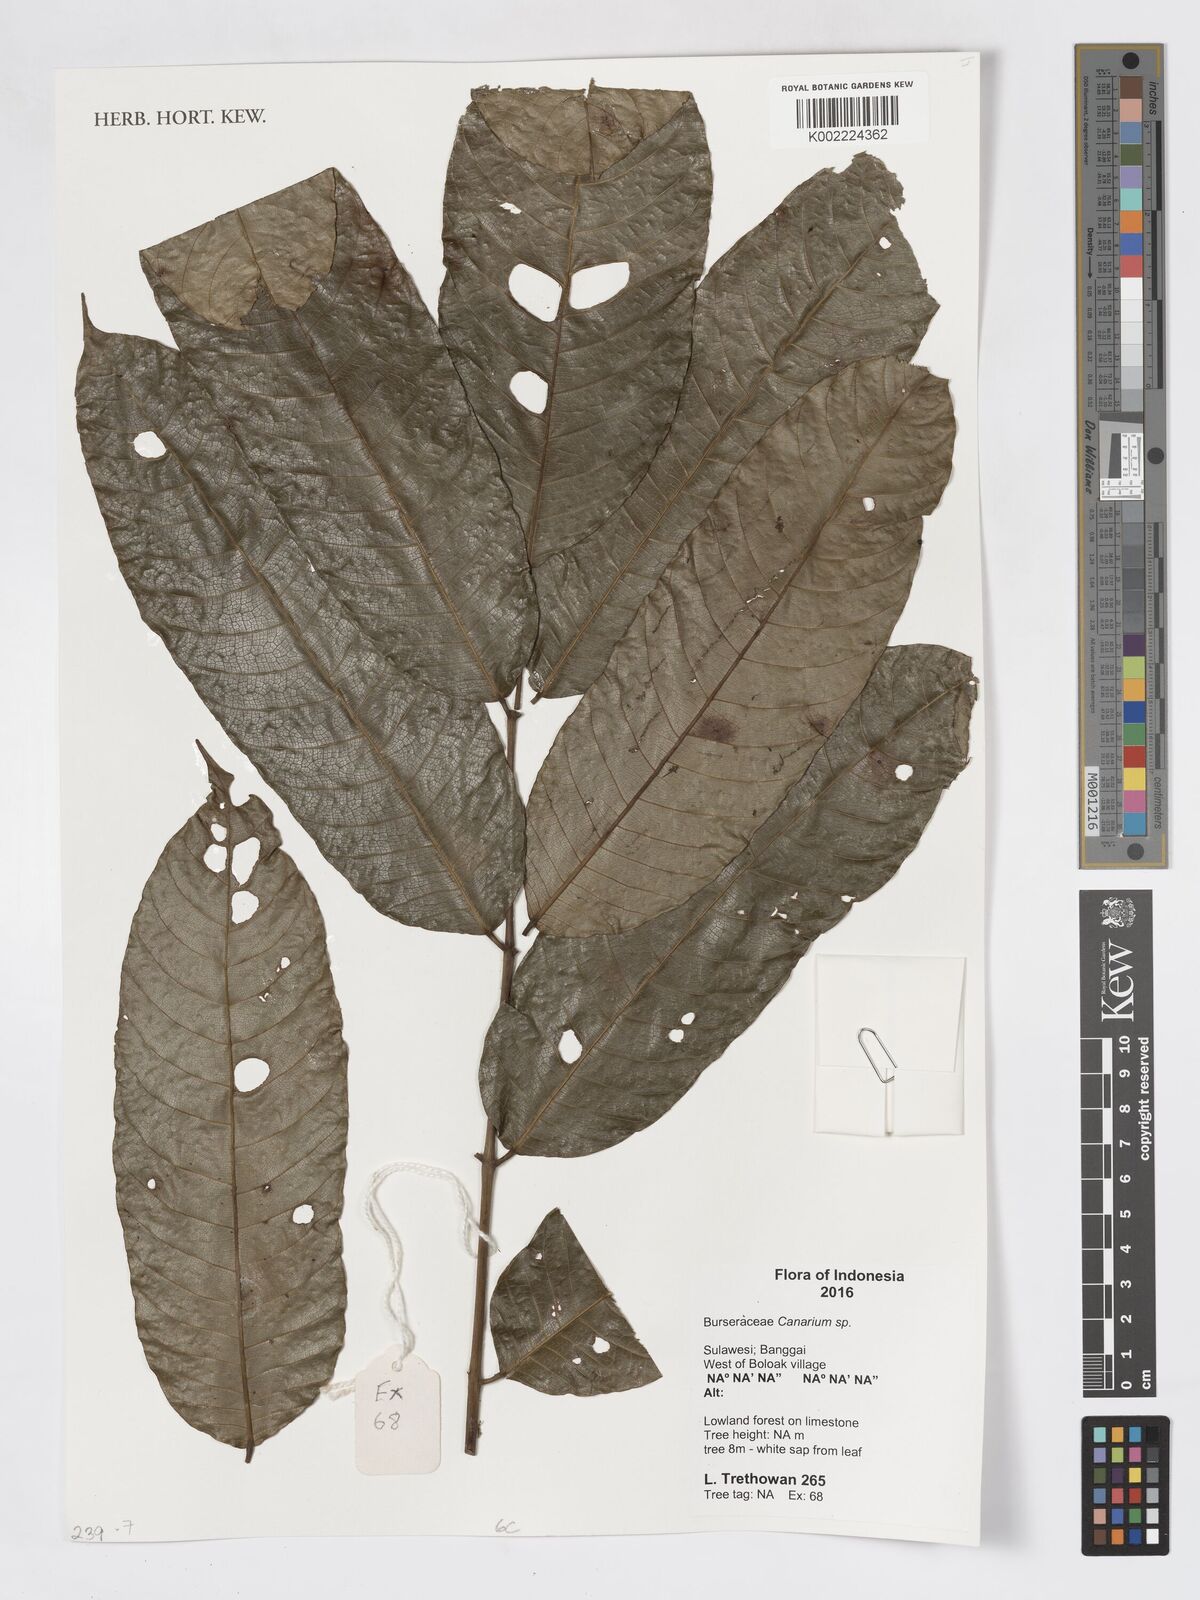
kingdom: Plantae
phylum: Tracheophyta
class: Magnoliopsida
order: Sapindales
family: Burseraceae
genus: Canarium
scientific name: Canarium
